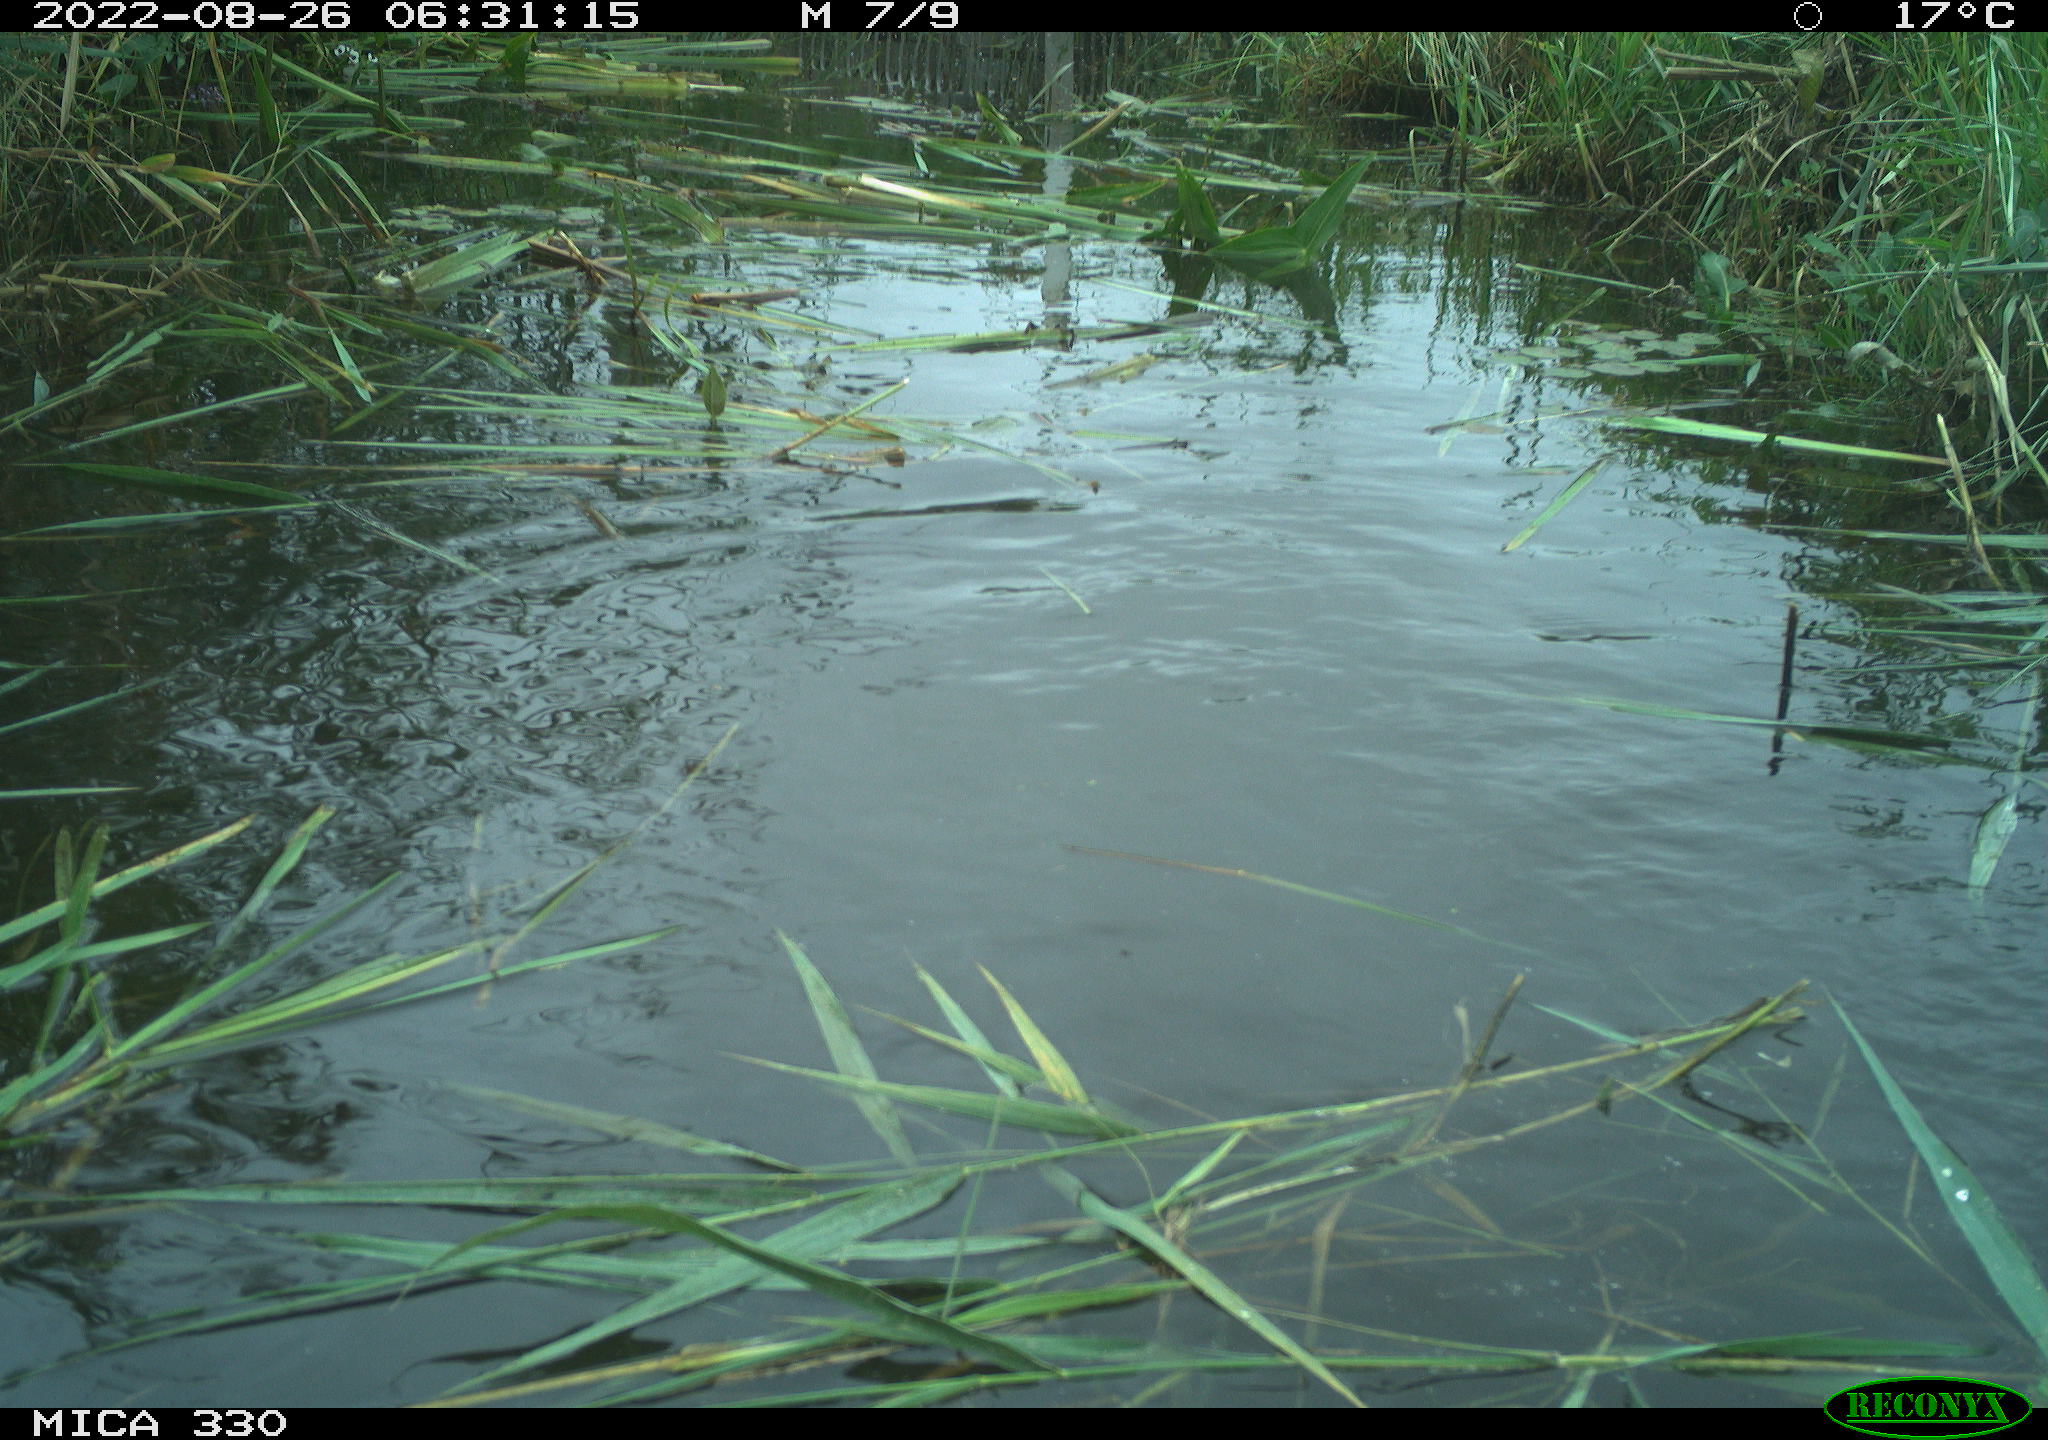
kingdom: Animalia
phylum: Chordata
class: Aves
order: Anseriformes
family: Anatidae
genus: Mareca
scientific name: Mareca strepera
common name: Gadwall
